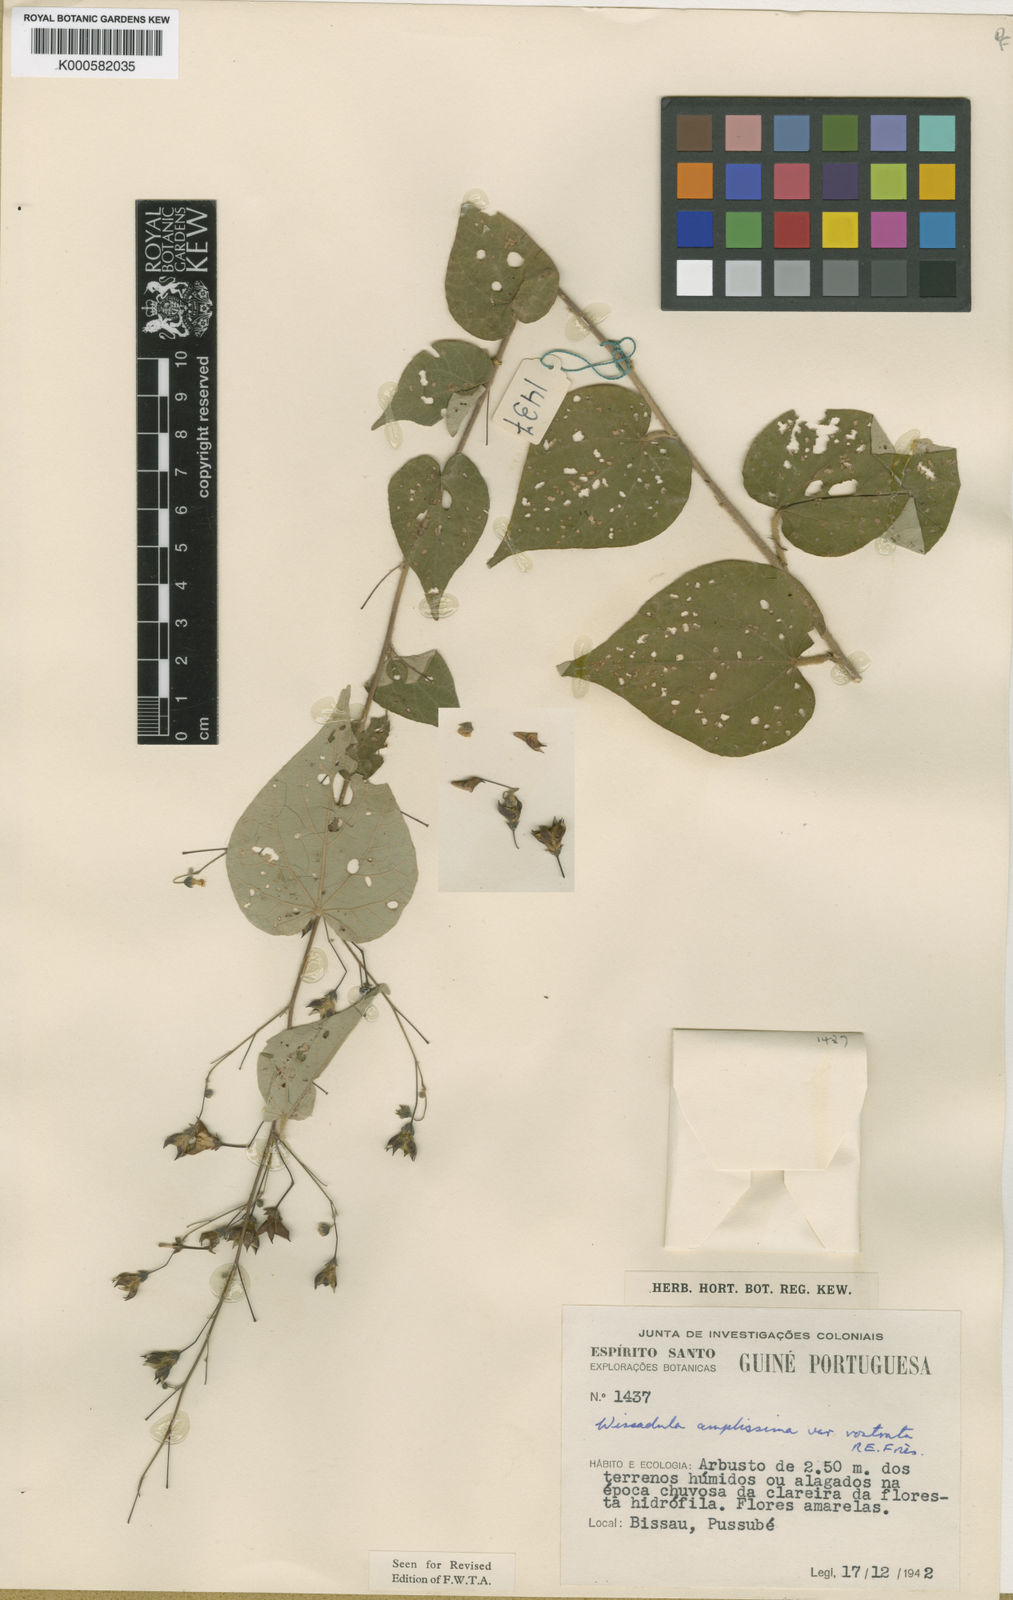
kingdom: Plantae
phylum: Tracheophyta
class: Magnoliopsida
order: Malvales
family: Malvaceae
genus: Wissadula
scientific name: Wissadula
